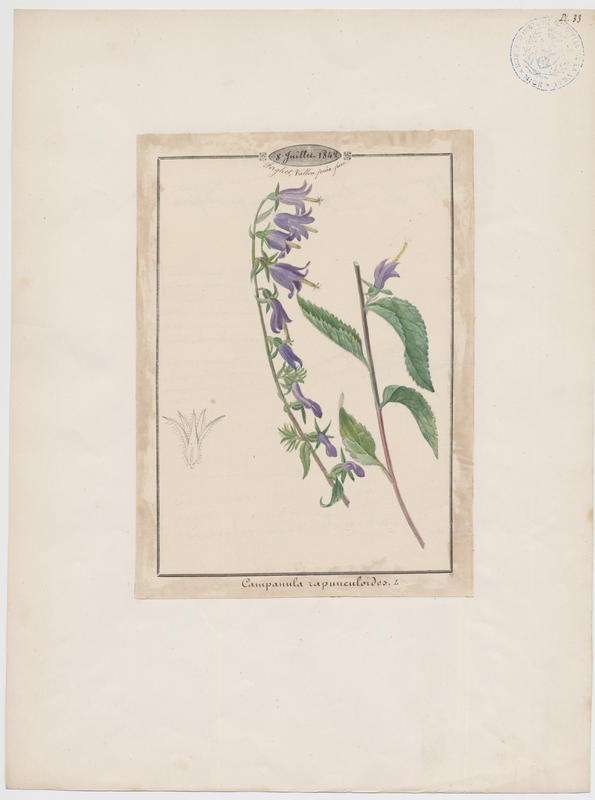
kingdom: Plantae
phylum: Tracheophyta
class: Magnoliopsida
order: Asterales
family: Campanulaceae
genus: Campanula
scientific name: Campanula rapunculoides
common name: Creeping bellflower
